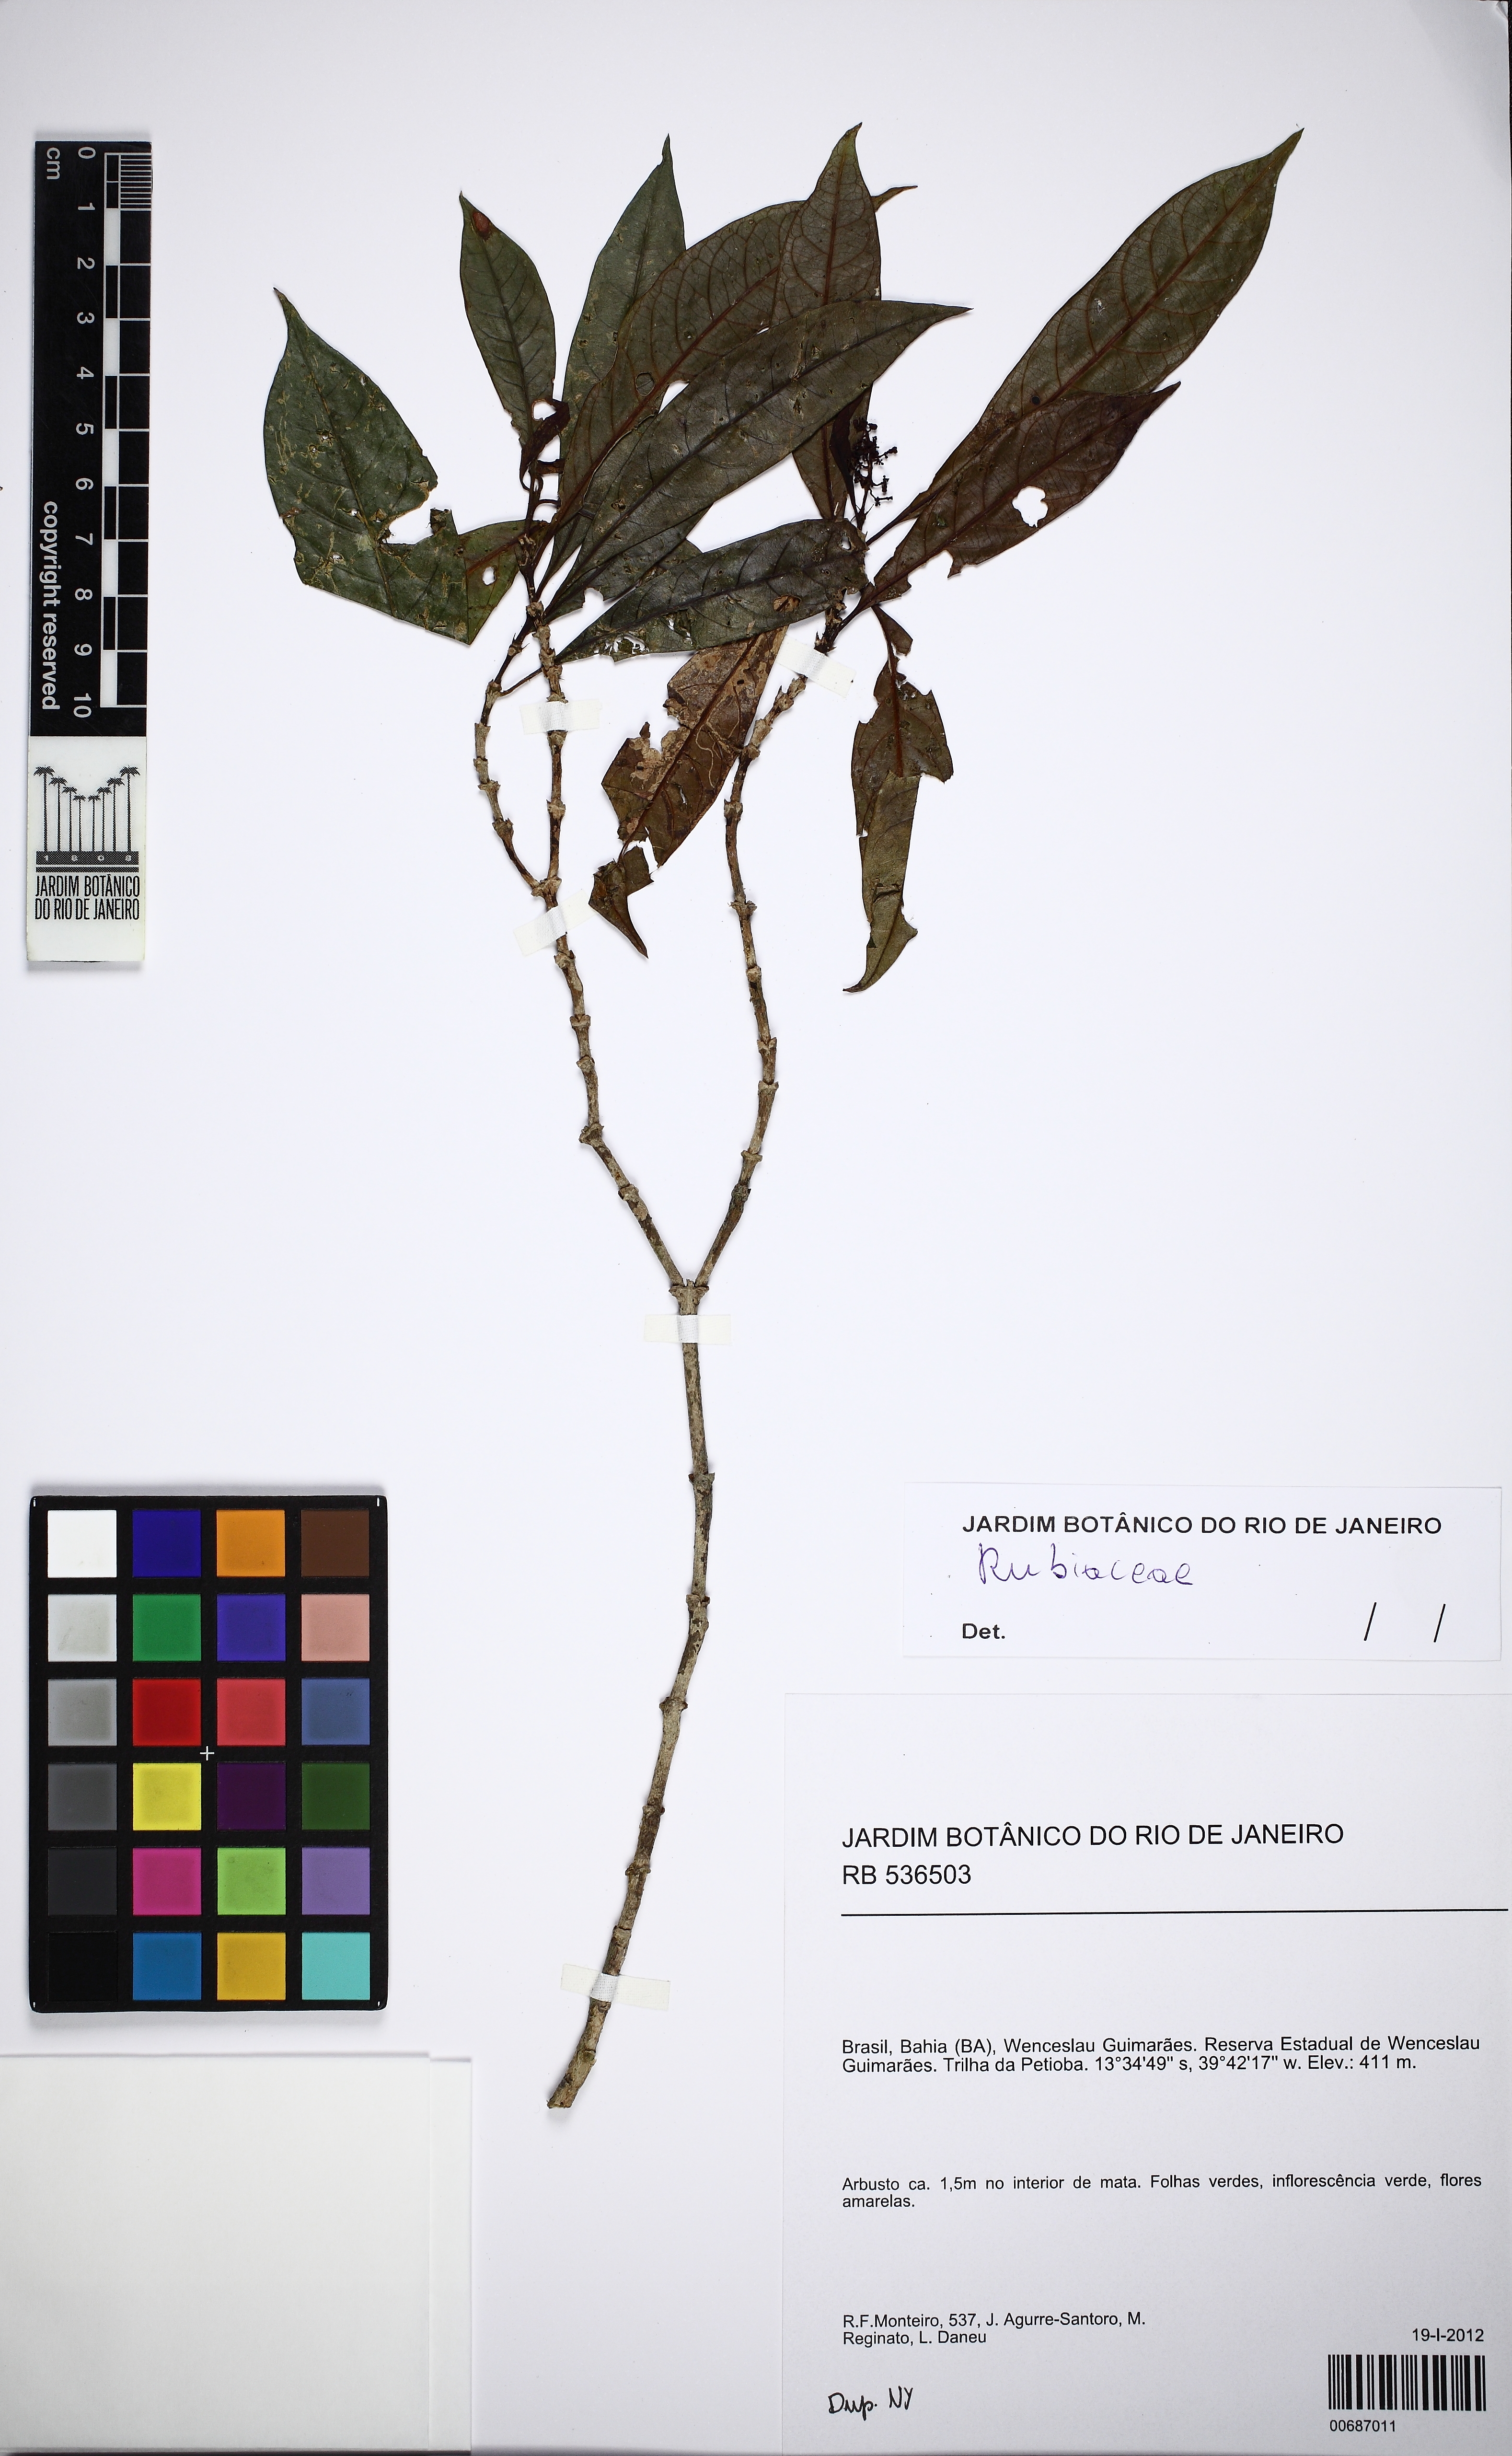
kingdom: Plantae
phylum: Tracheophyta
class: Magnoliopsida
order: Gentianales
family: Rubiaceae
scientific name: Rubiaceae
